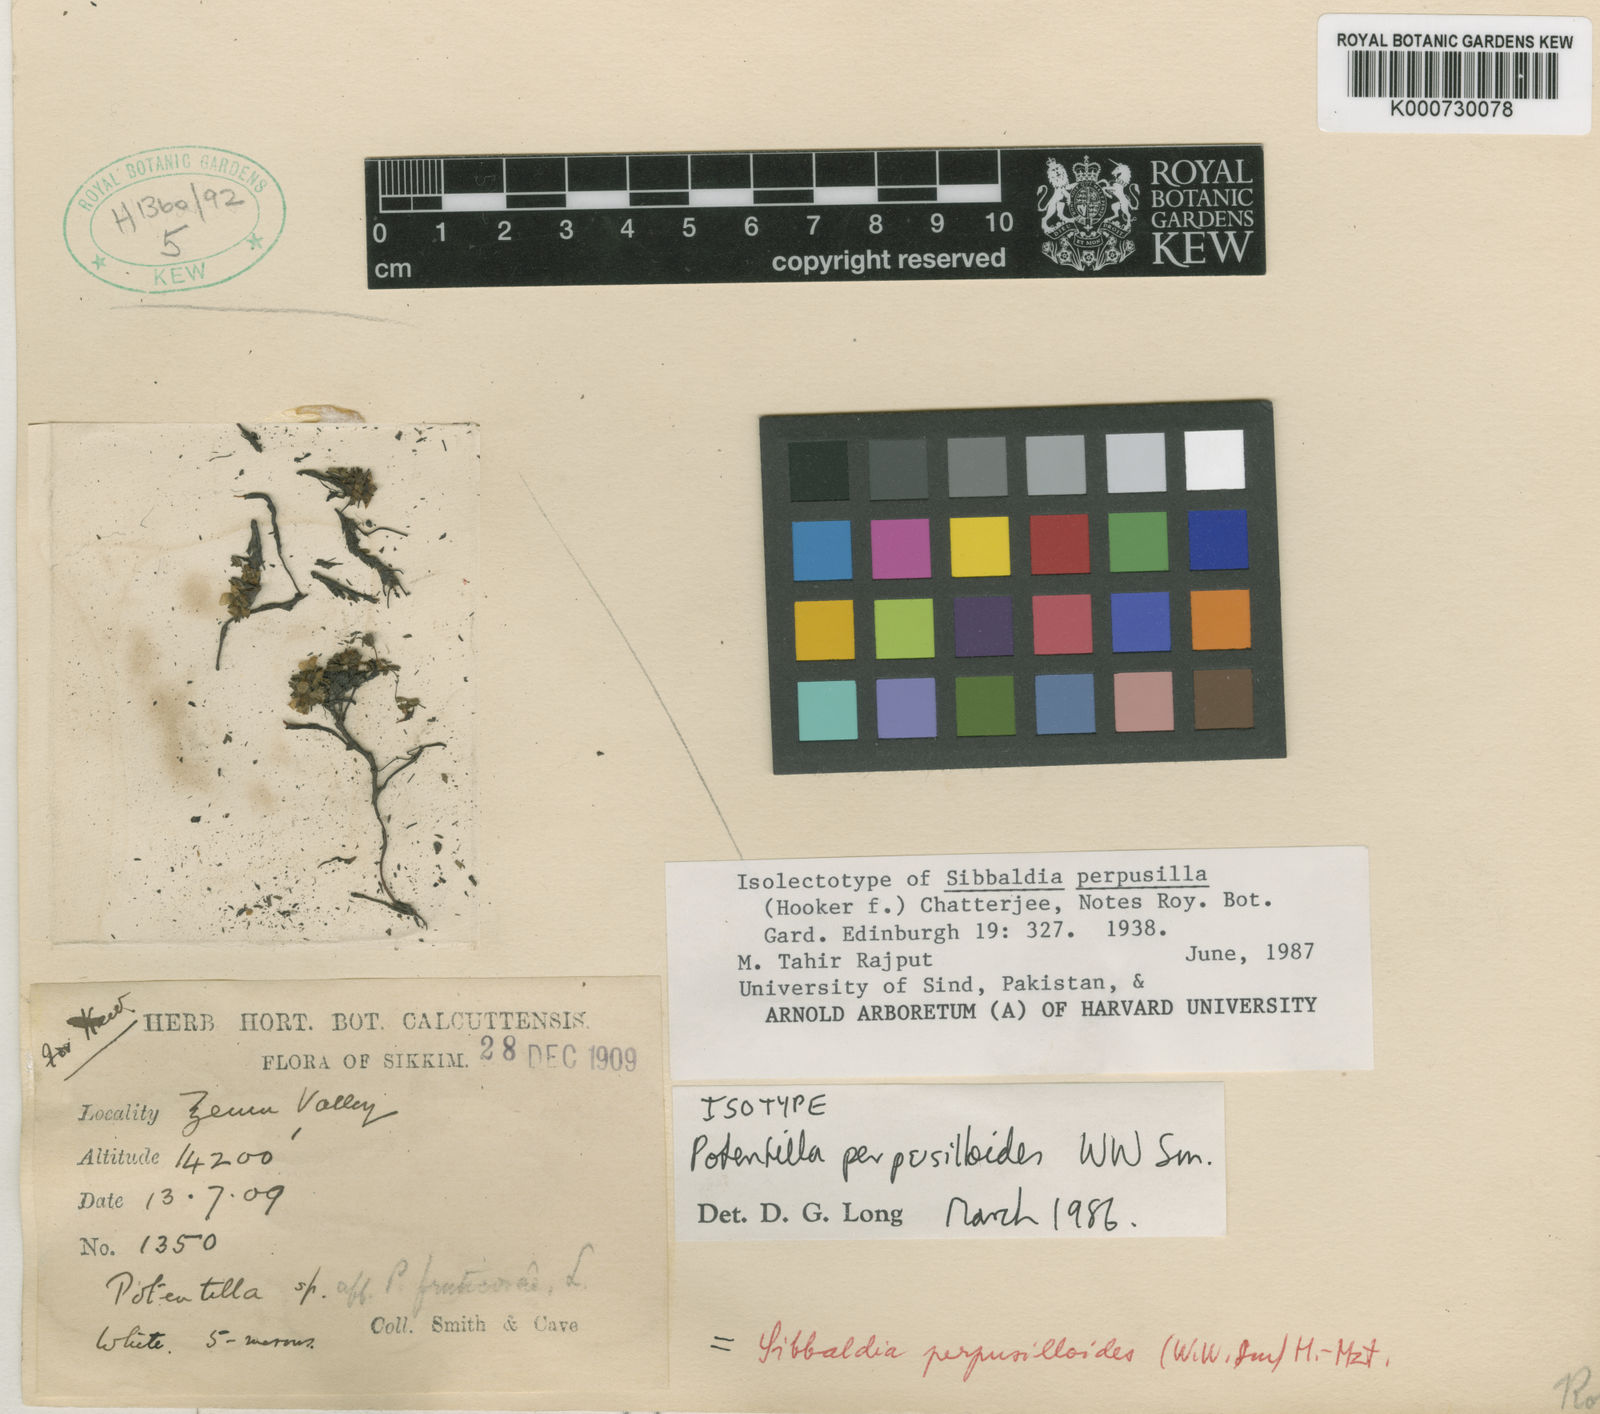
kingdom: Plantae
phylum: Tracheophyta
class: Magnoliopsida
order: Rosales
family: Rosaceae
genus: Chamaecallis
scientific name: Chamaecallis perpusilloides
